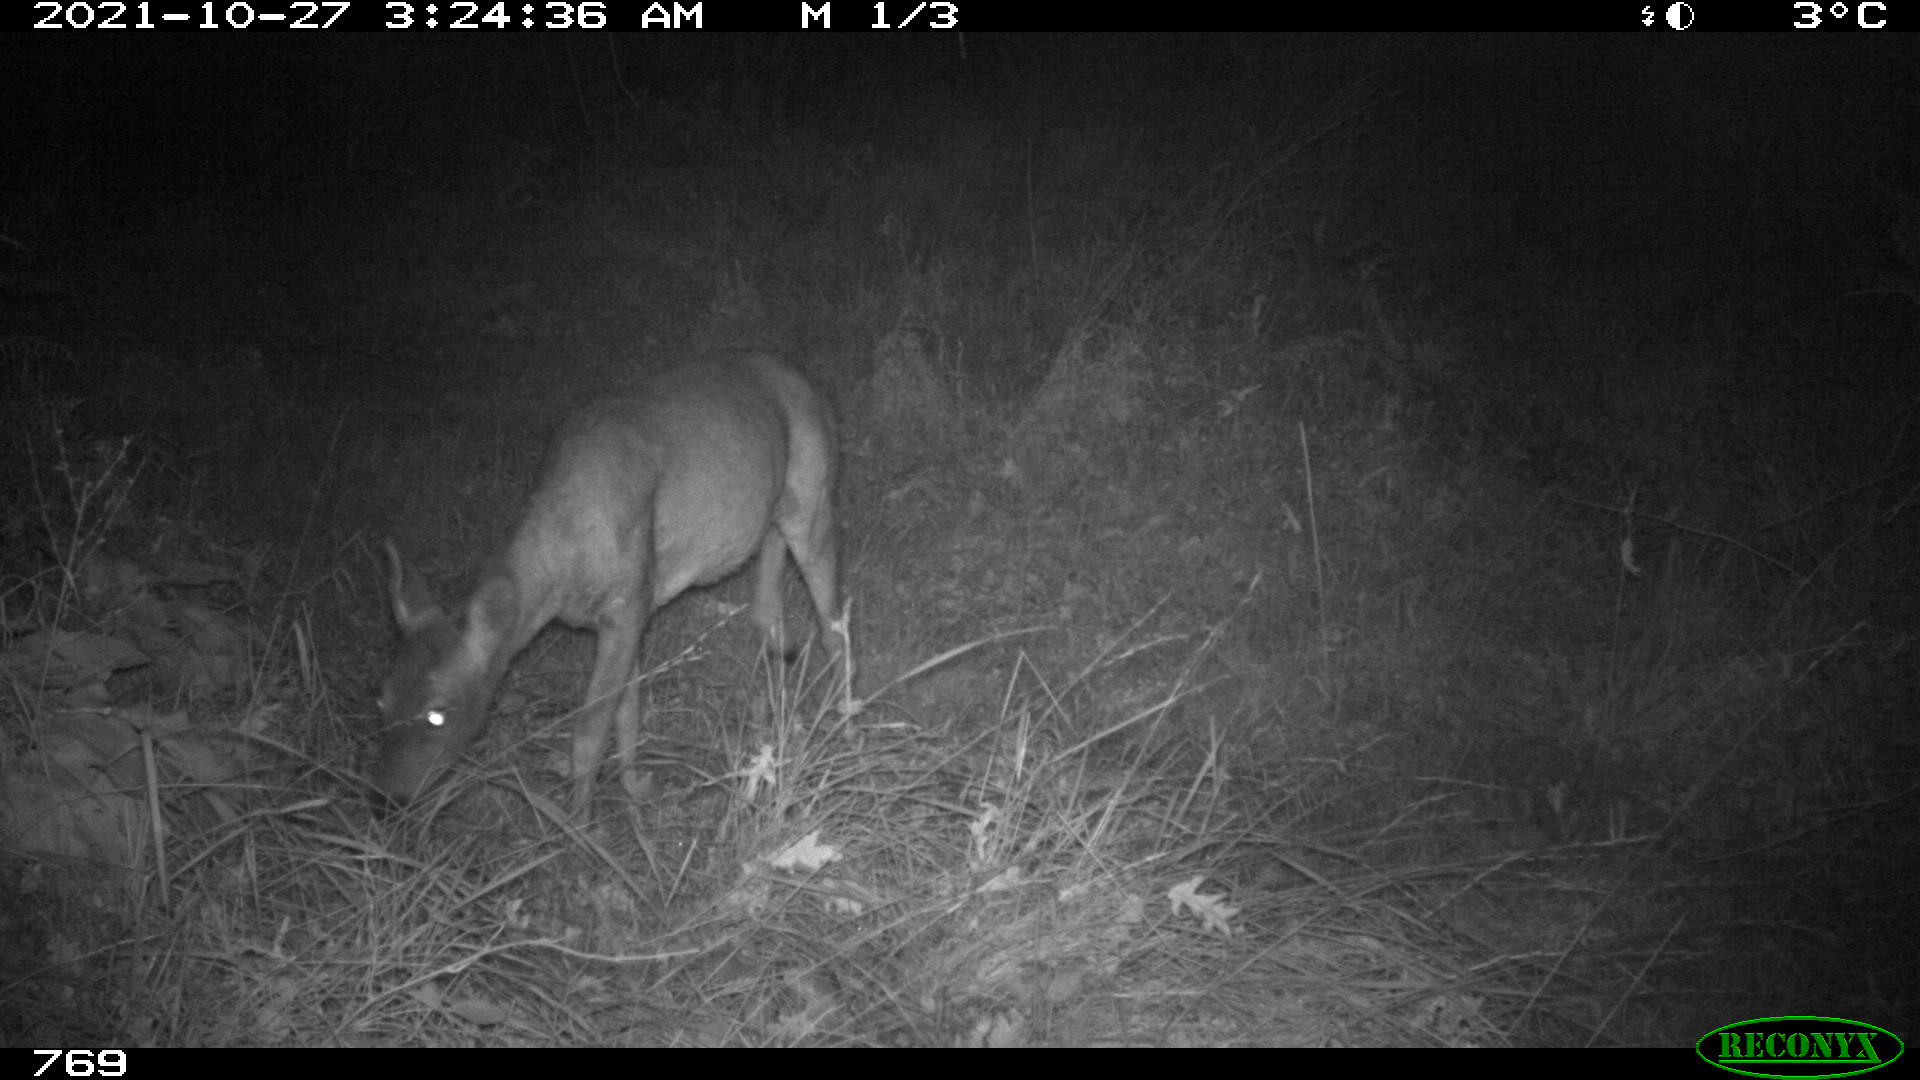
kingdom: Animalia
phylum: Chordata
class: Mammalia
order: Artiodactyla
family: Cervidae
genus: Capreolus
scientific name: Capreolus capreolus
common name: Western roe deer
